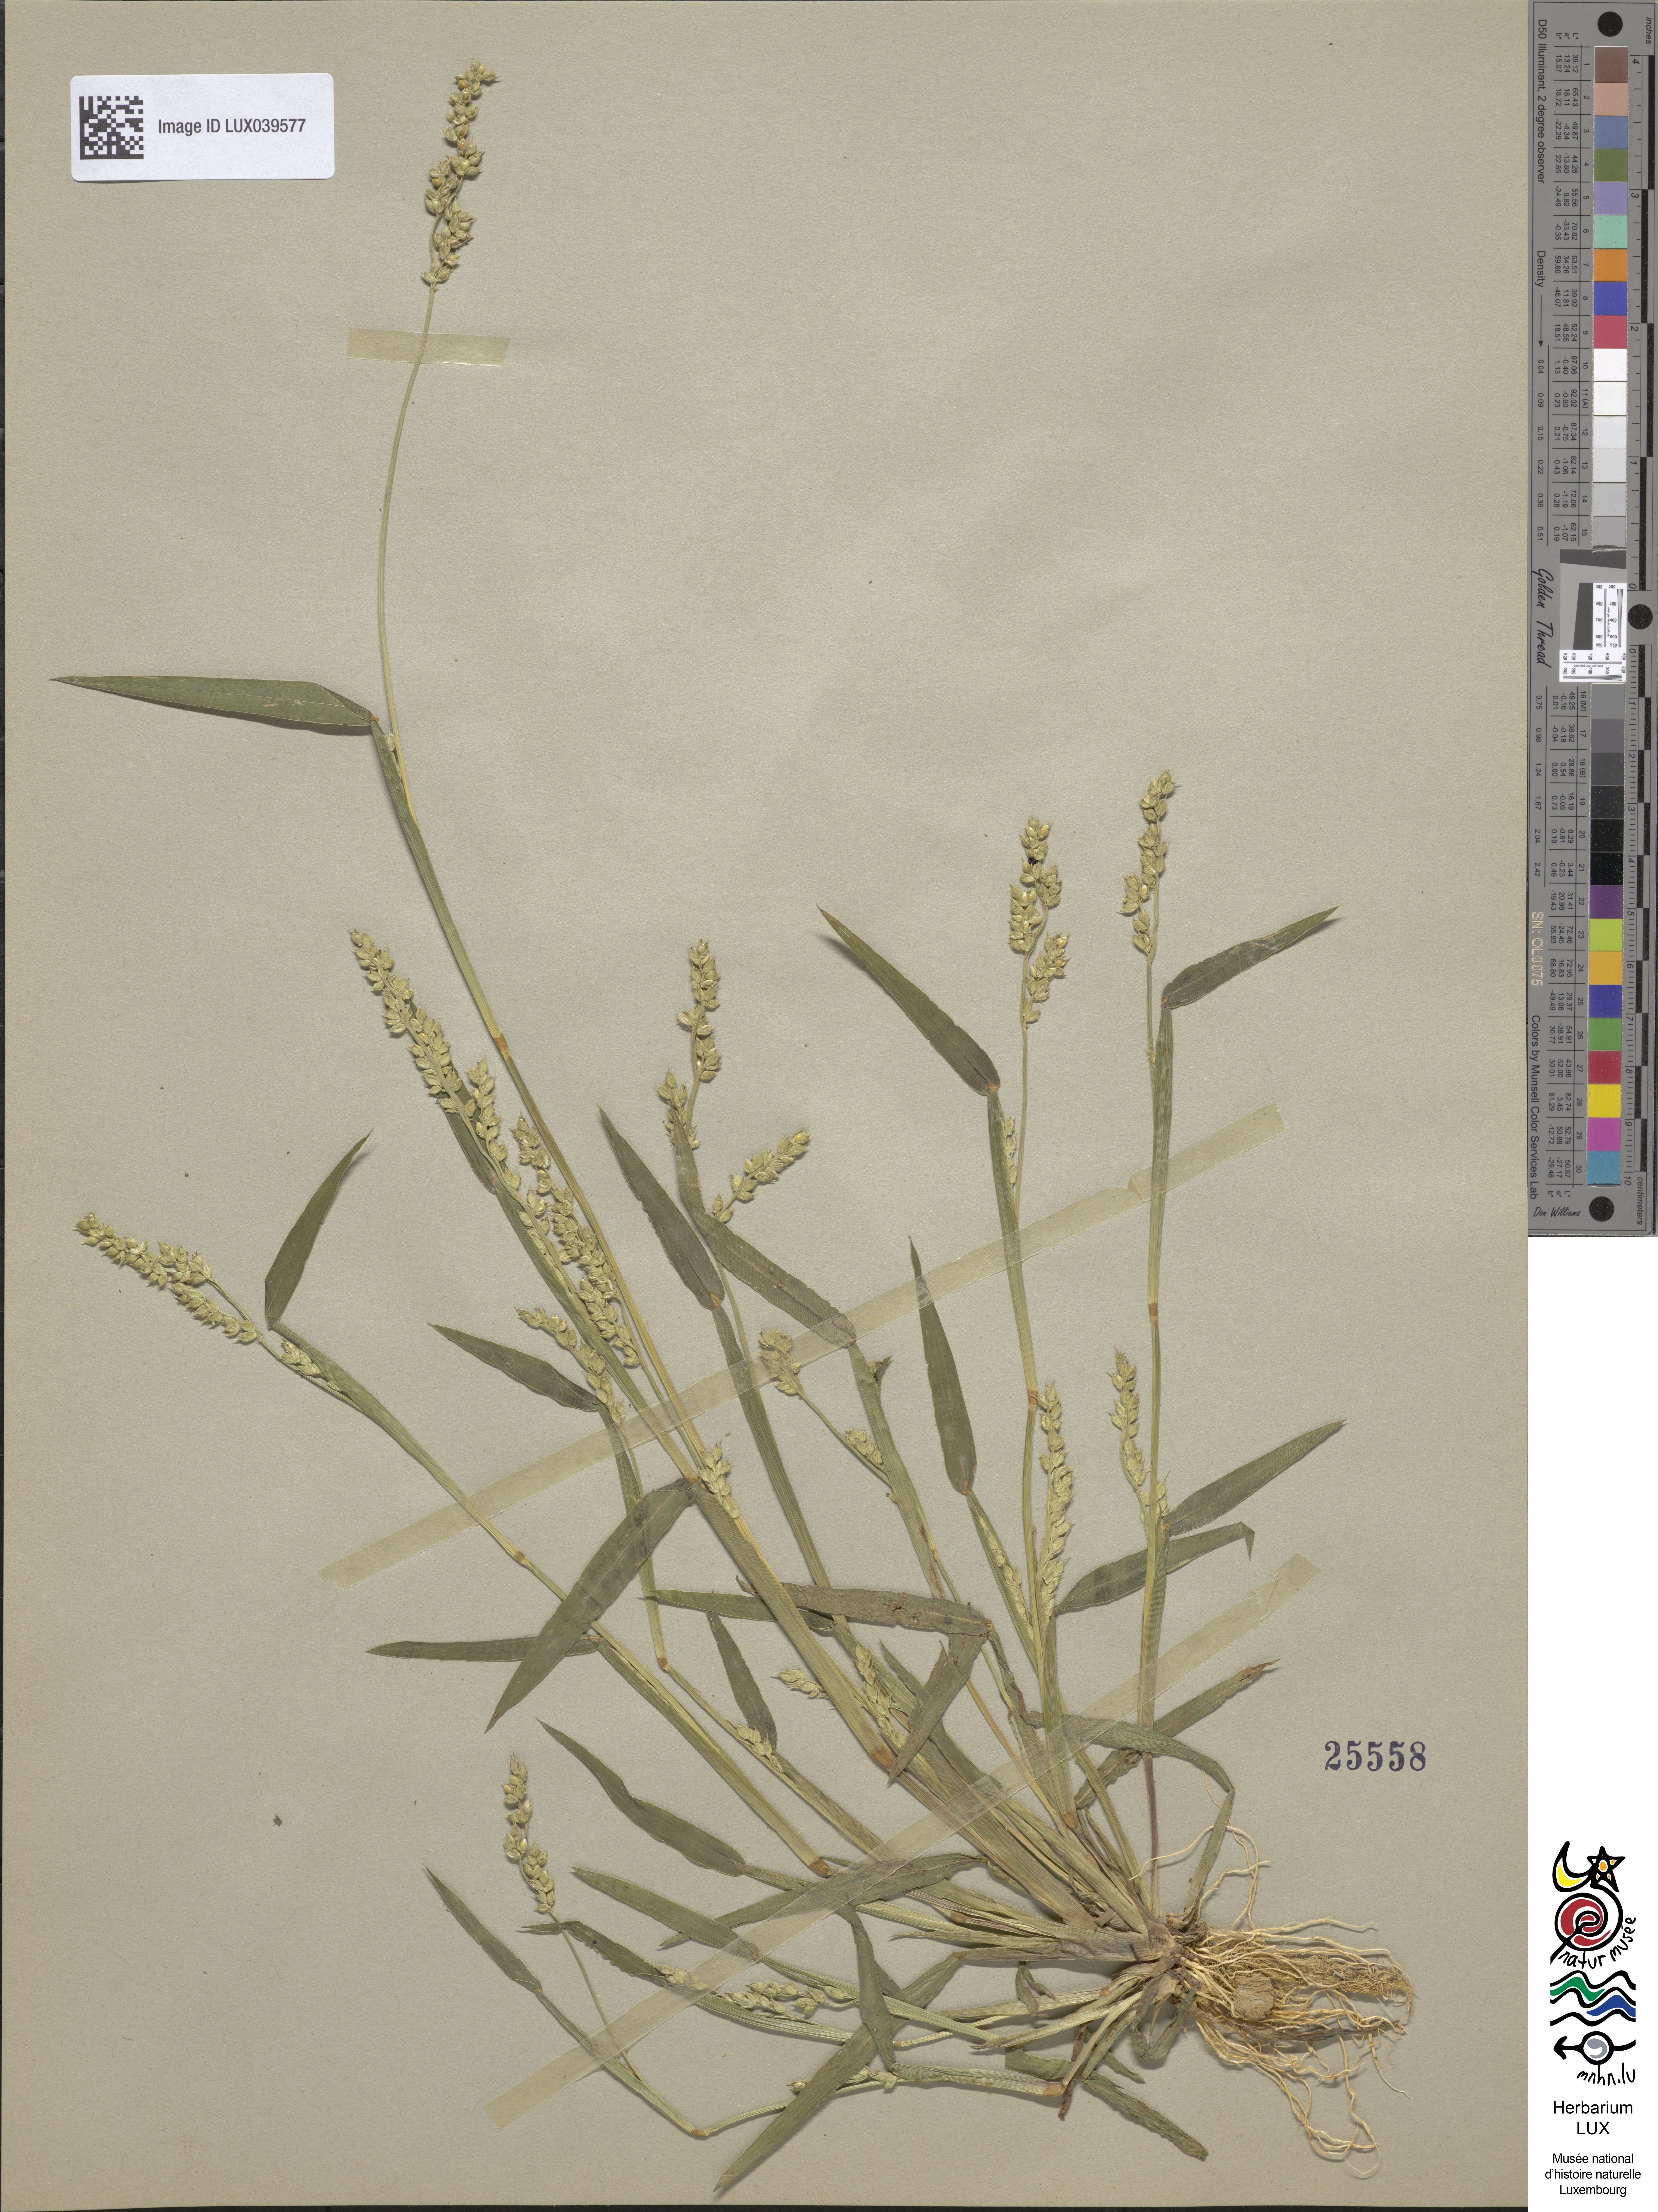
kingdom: Plantae
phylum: Tracheophyta
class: Liliopsida
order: Poales
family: Poaceae
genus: Echinochloa
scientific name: Echinochloa crus-galli
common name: Cockspur
